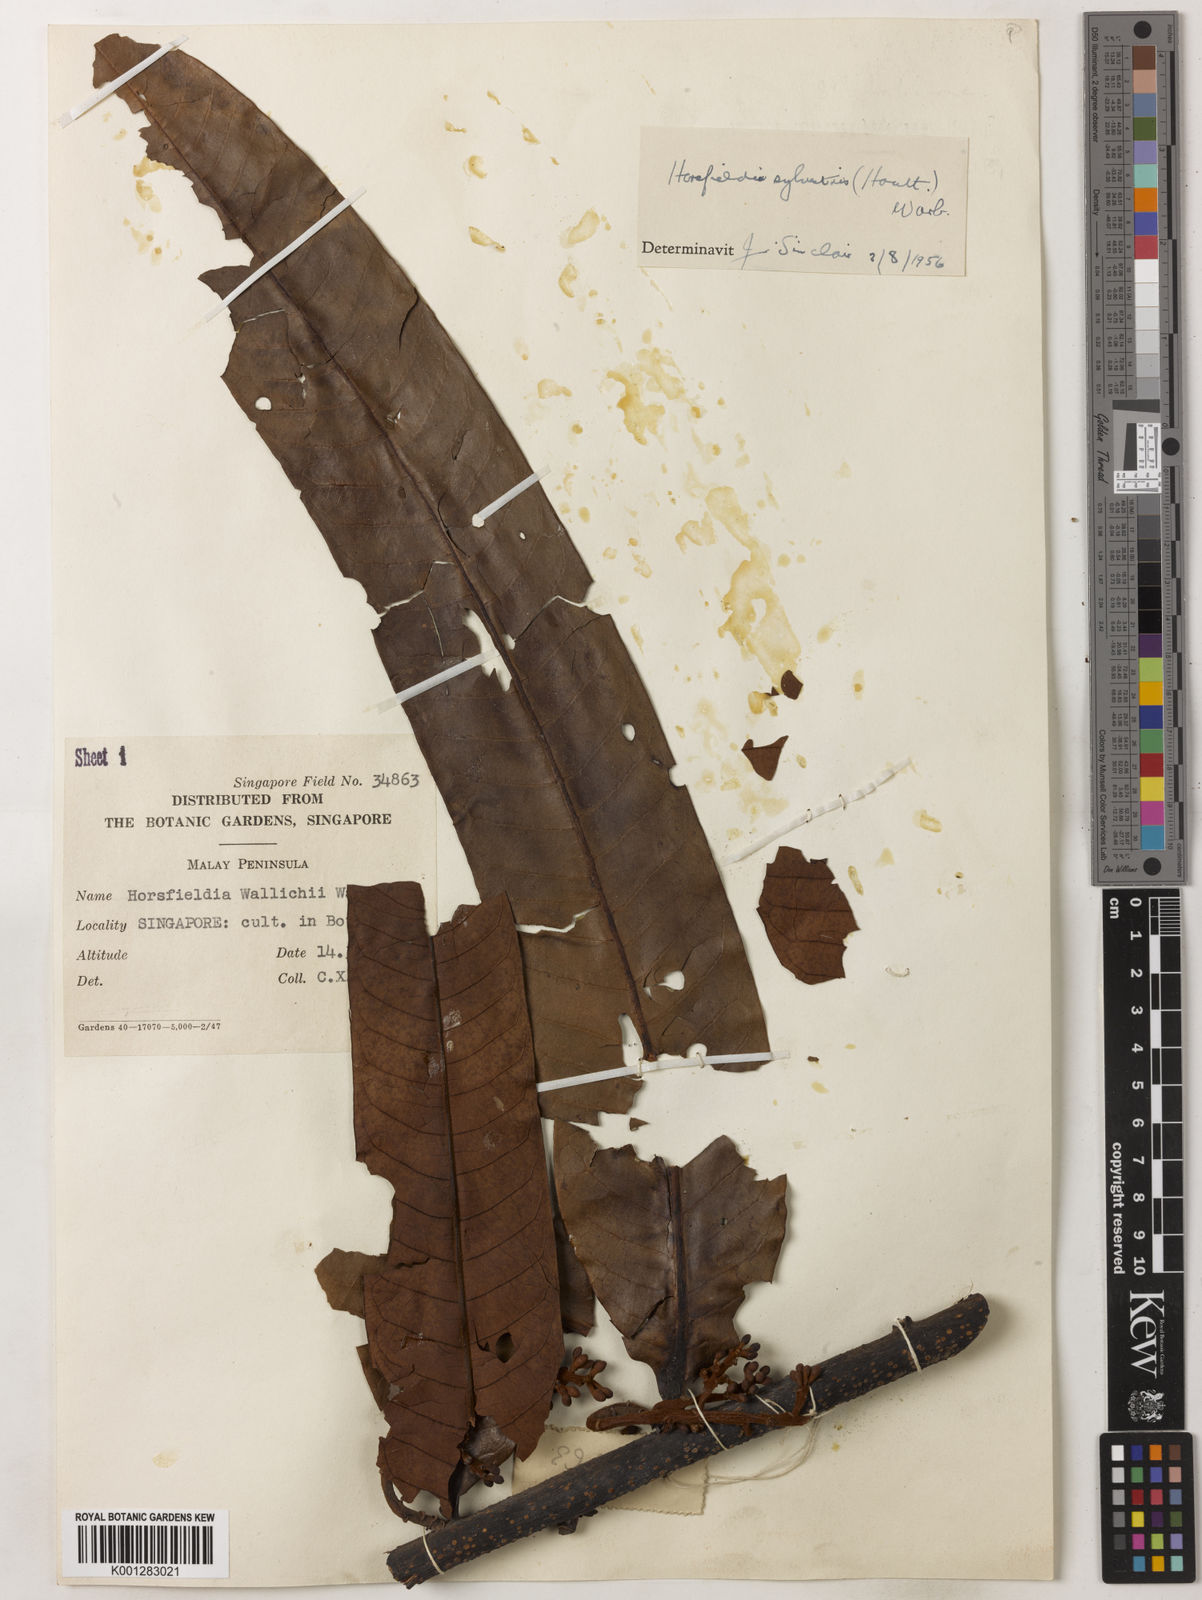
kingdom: Plantae
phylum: Tracheophyta
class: Magnoliopsida
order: Magnoliales
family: Myristicaceae
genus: Horsfieldia
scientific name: Horsfieldia sylvestris
